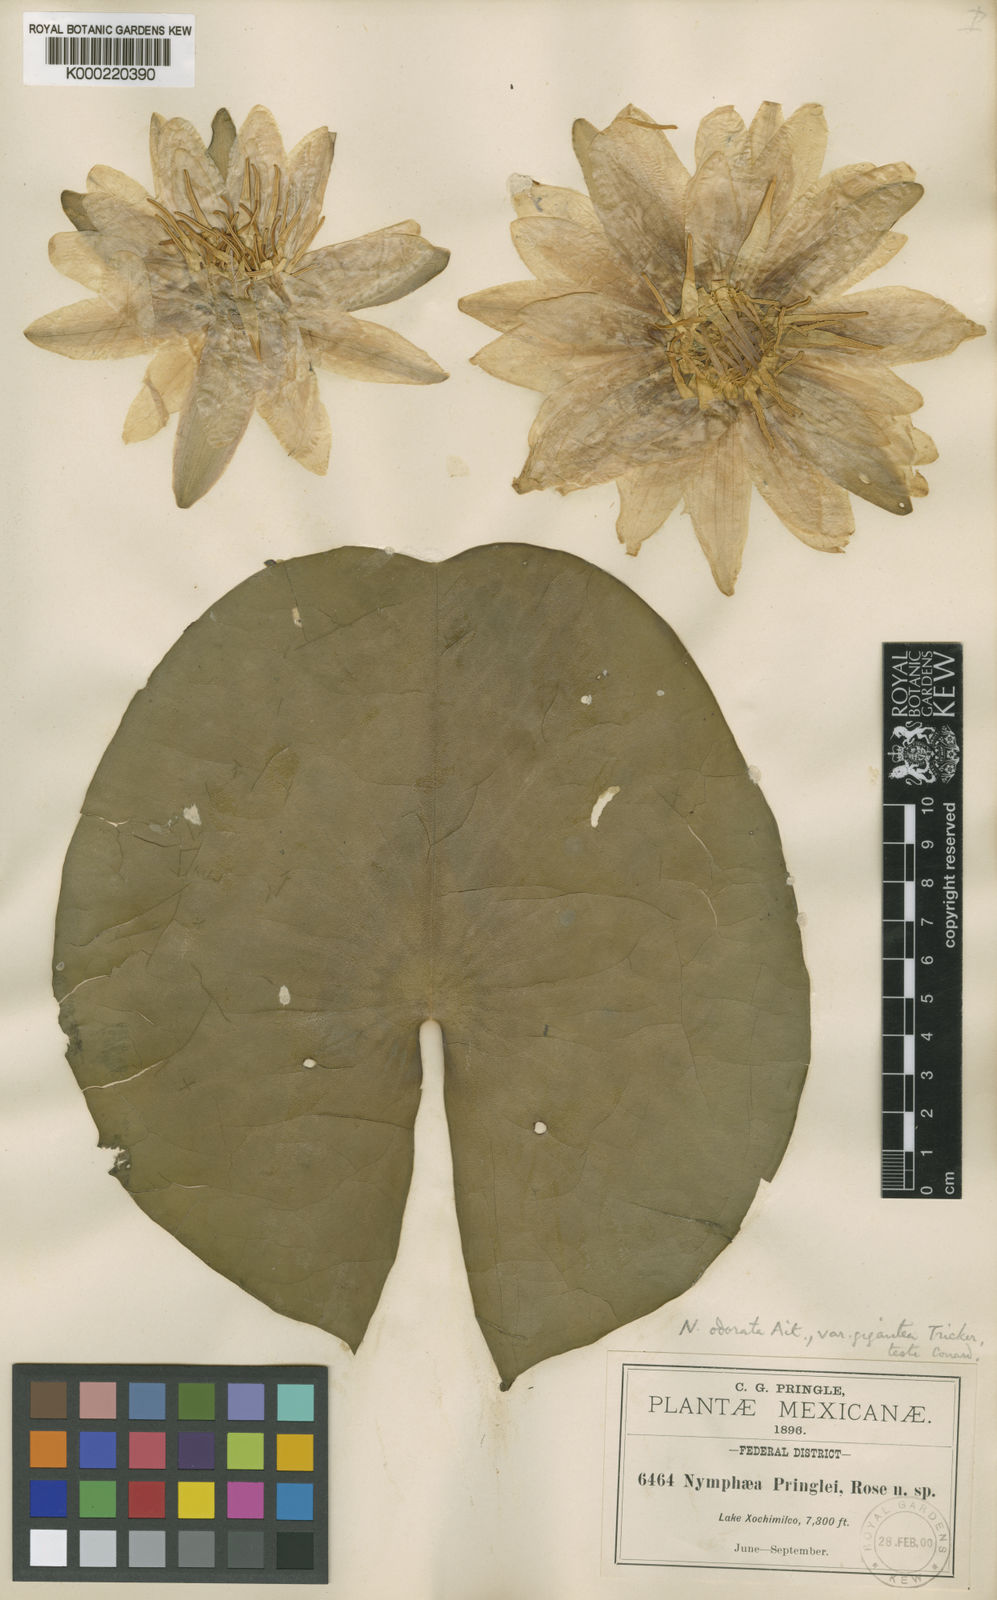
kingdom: Plantae
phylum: Tracheophyta
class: Magnoliopsida
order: Nymphaeales
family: Nymphaeaceae
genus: Nymphaea
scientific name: Nymphaea odorata
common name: Fragrant water-lily
